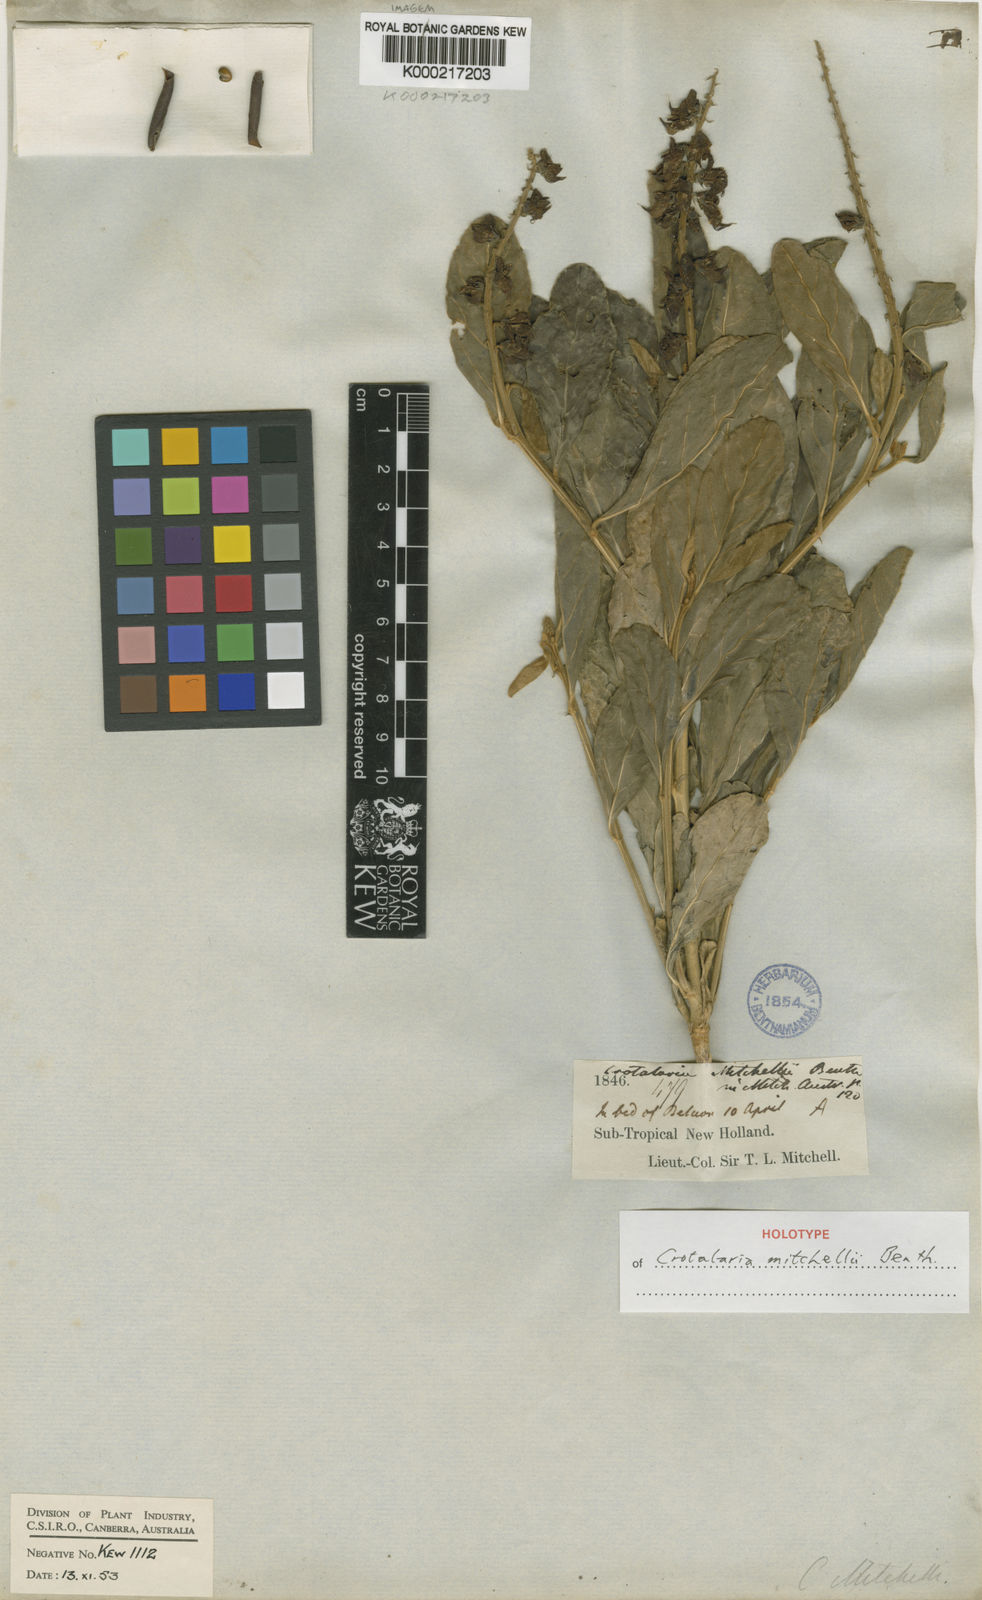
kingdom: Plantae
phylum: Tracheophyta
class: Magnoliopsida
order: Fabales
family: Fabaceae
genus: Crotalaria
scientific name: Crotalaria mitchellii
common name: Yellow rattlepod
